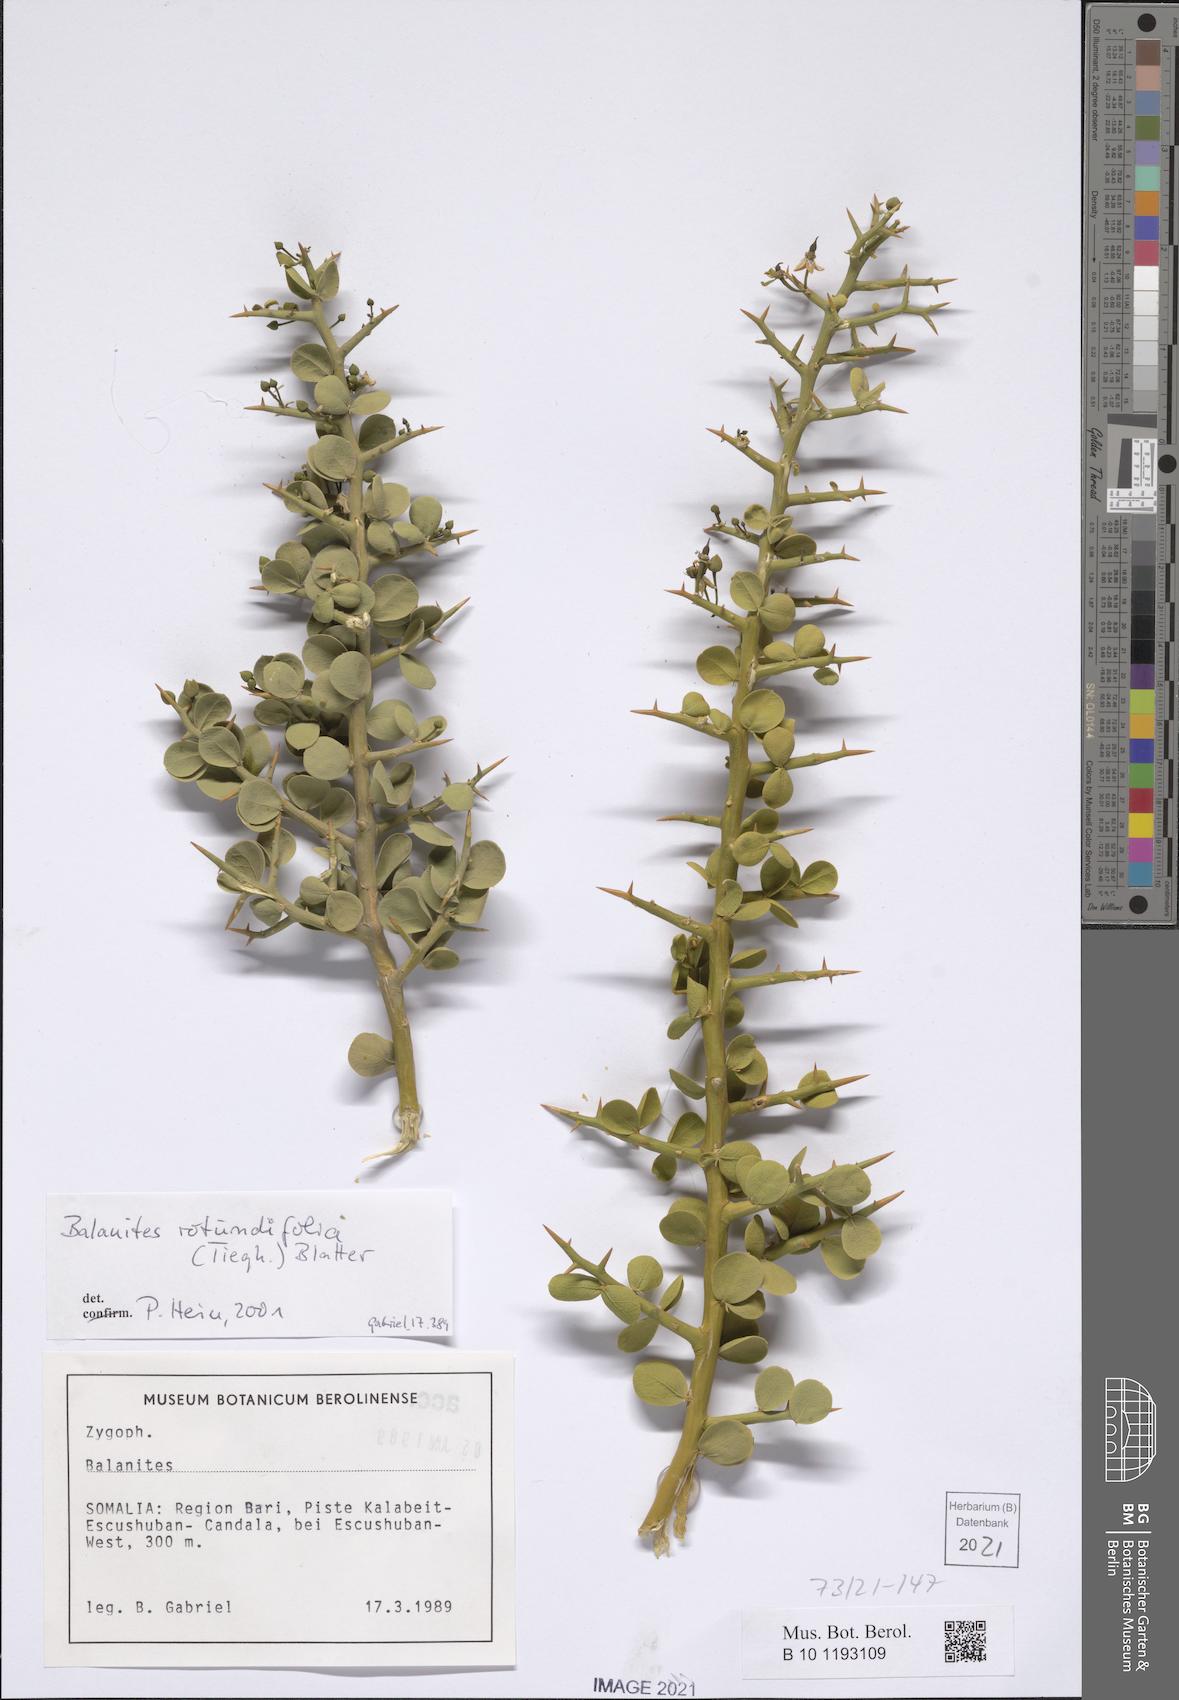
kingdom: Plantae
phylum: Tracheophyta
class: Magnoliopsida
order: Zygophyllales
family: Zygophyllaceae
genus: Balanites
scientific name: Balanites rotundifolia
